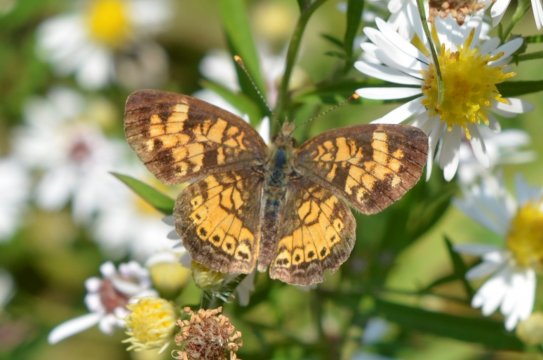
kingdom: Animalia
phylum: Arthropoda
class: Insecta
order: Lepidoptera
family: Nymphalidae
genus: Phyciodes
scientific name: Phyciodes
